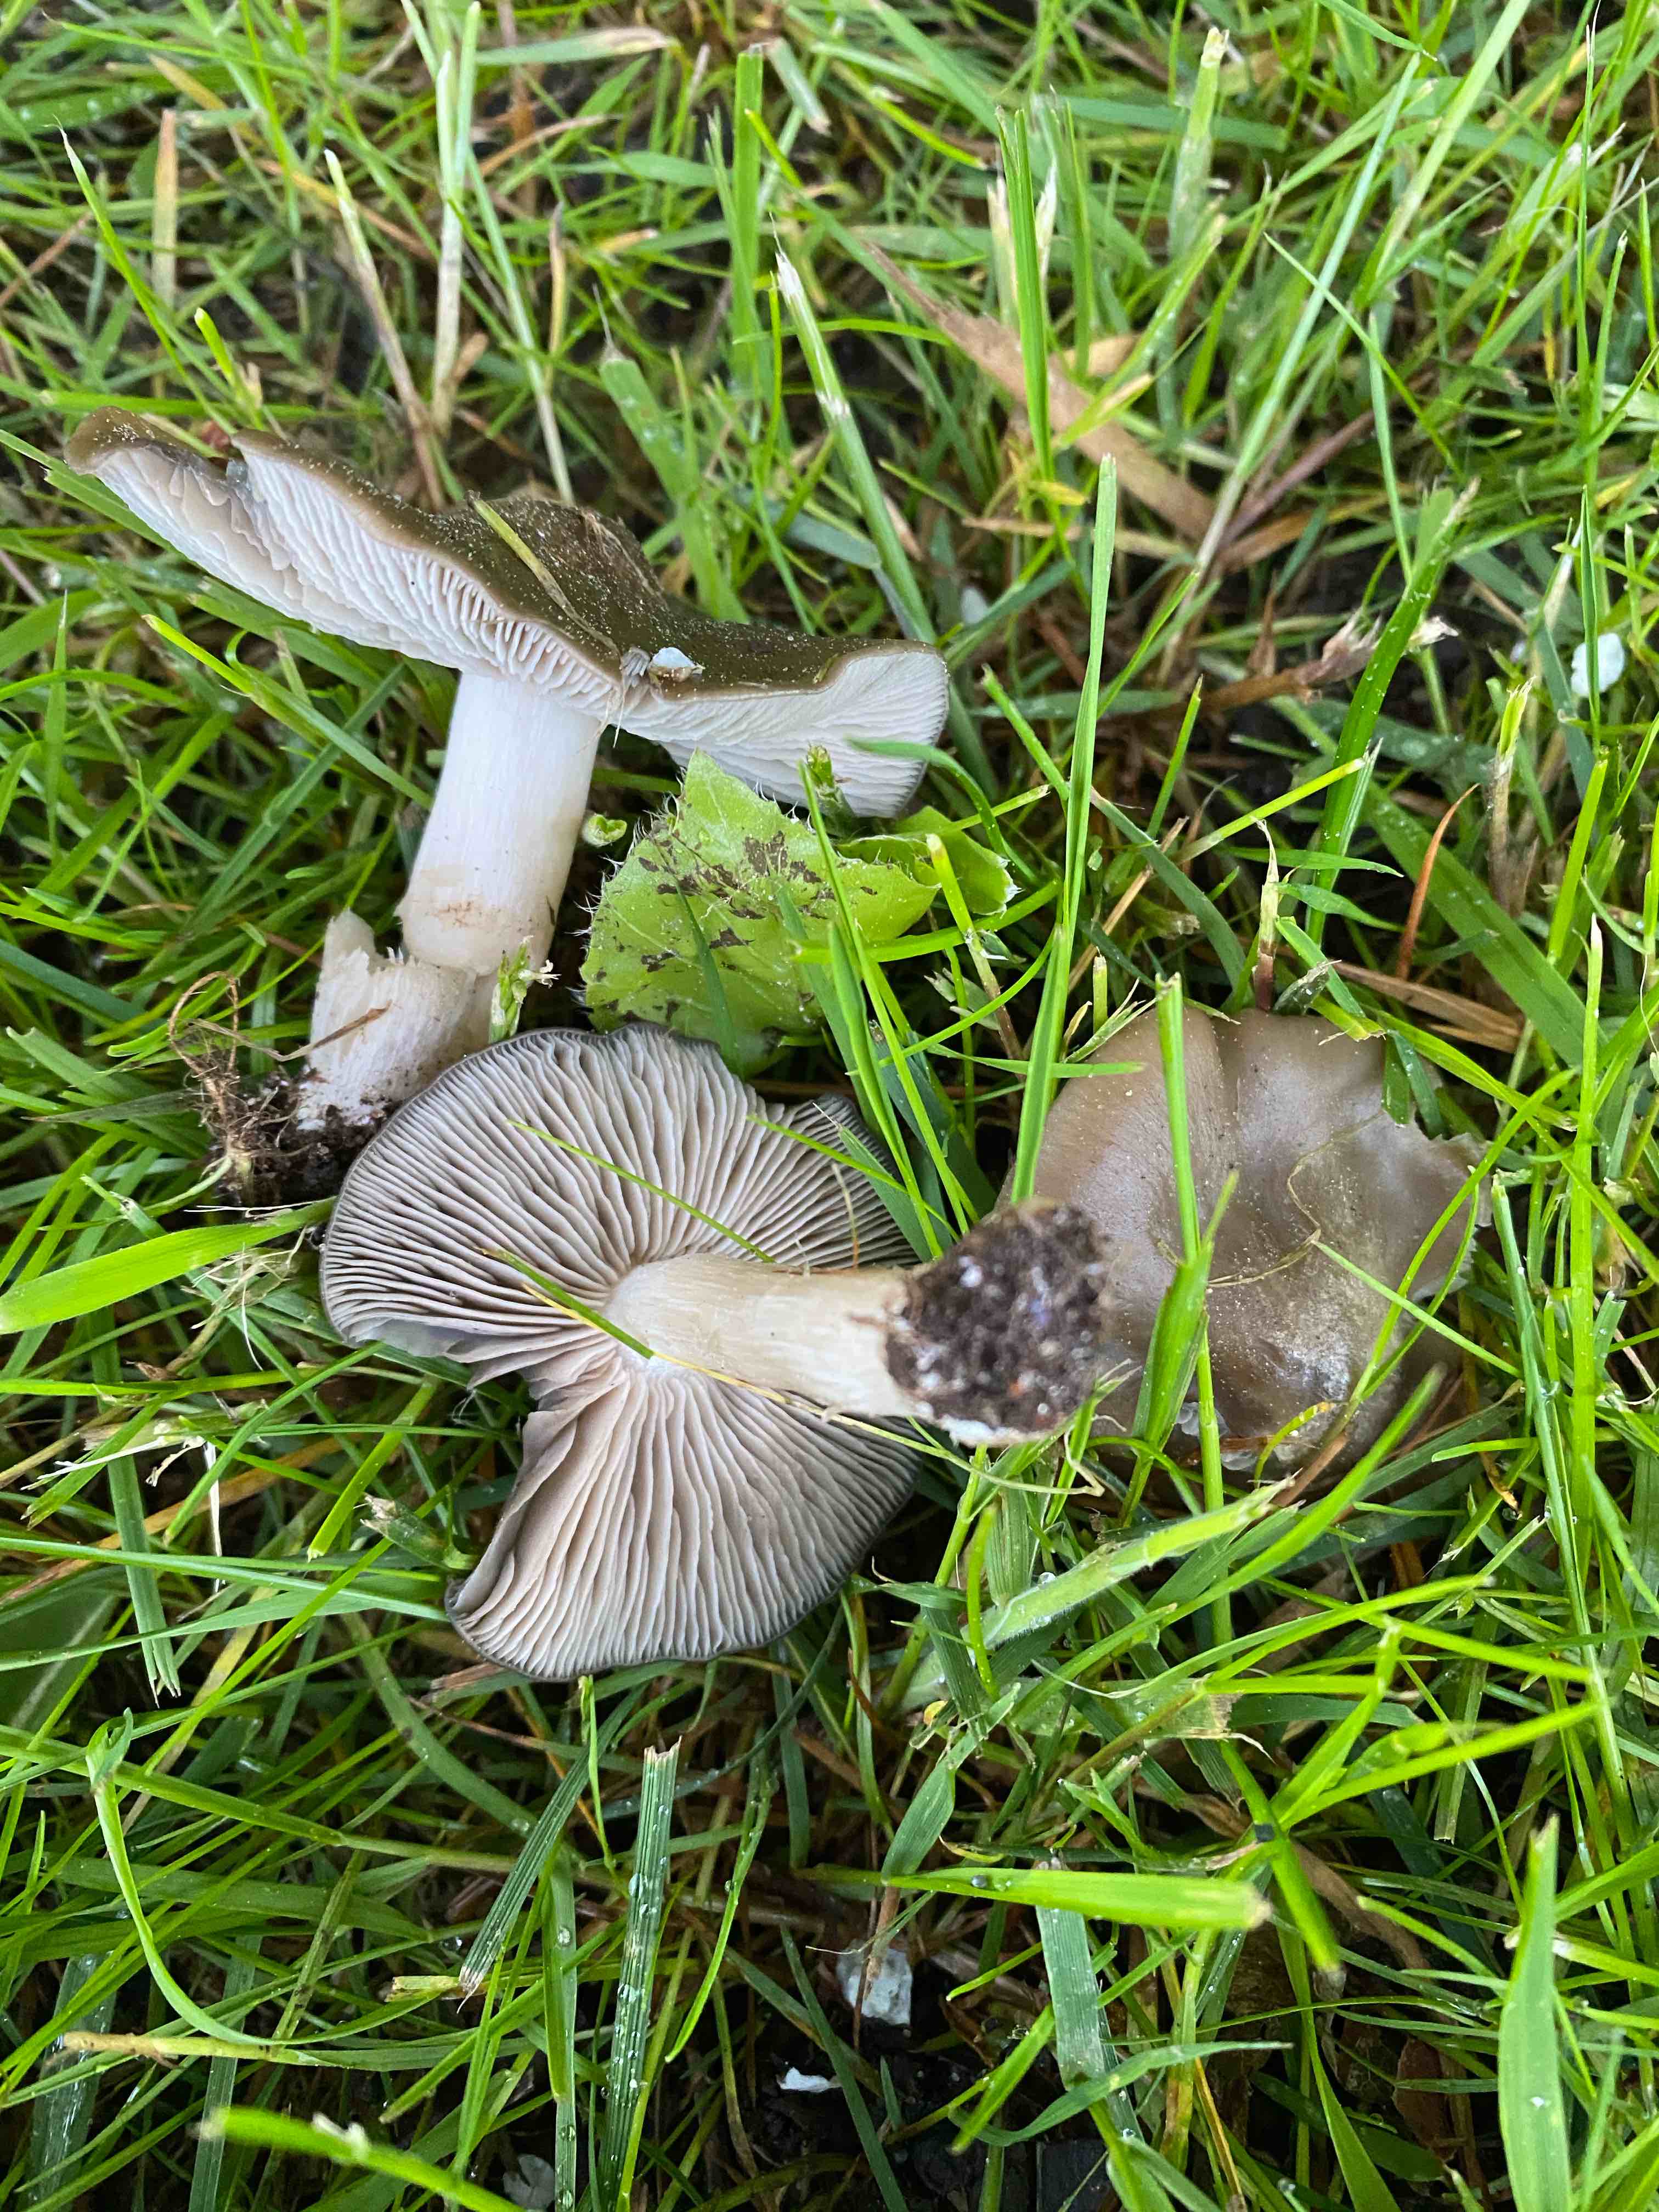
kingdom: Fungi
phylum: Basidiomycota
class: Agaricomycetes
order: Agaricales
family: Entolomataceae
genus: Entoloma
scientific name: Entoloma
